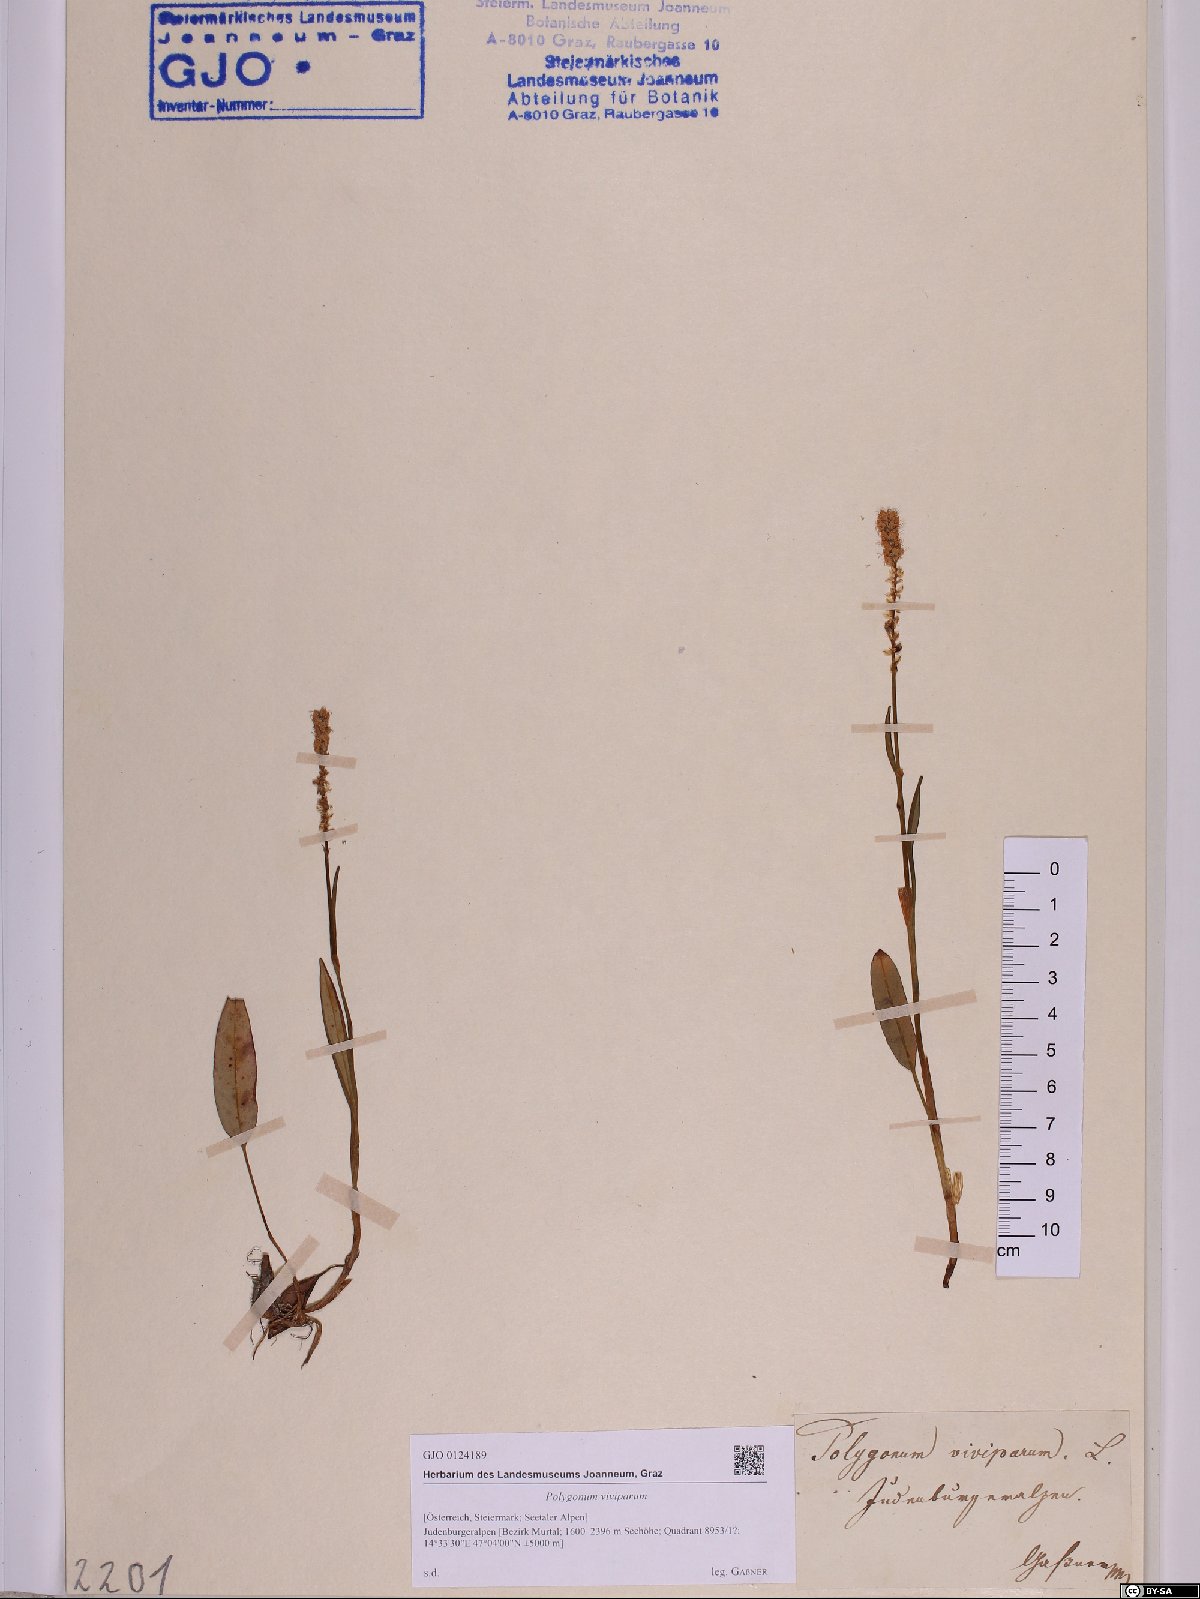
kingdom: Plantae
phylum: Tracheophyta
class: Magnoliopsida
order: Caryophyllales
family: Polygonaceae
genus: Bistorta
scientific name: Bistorta vivipara
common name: Alpine bistort
